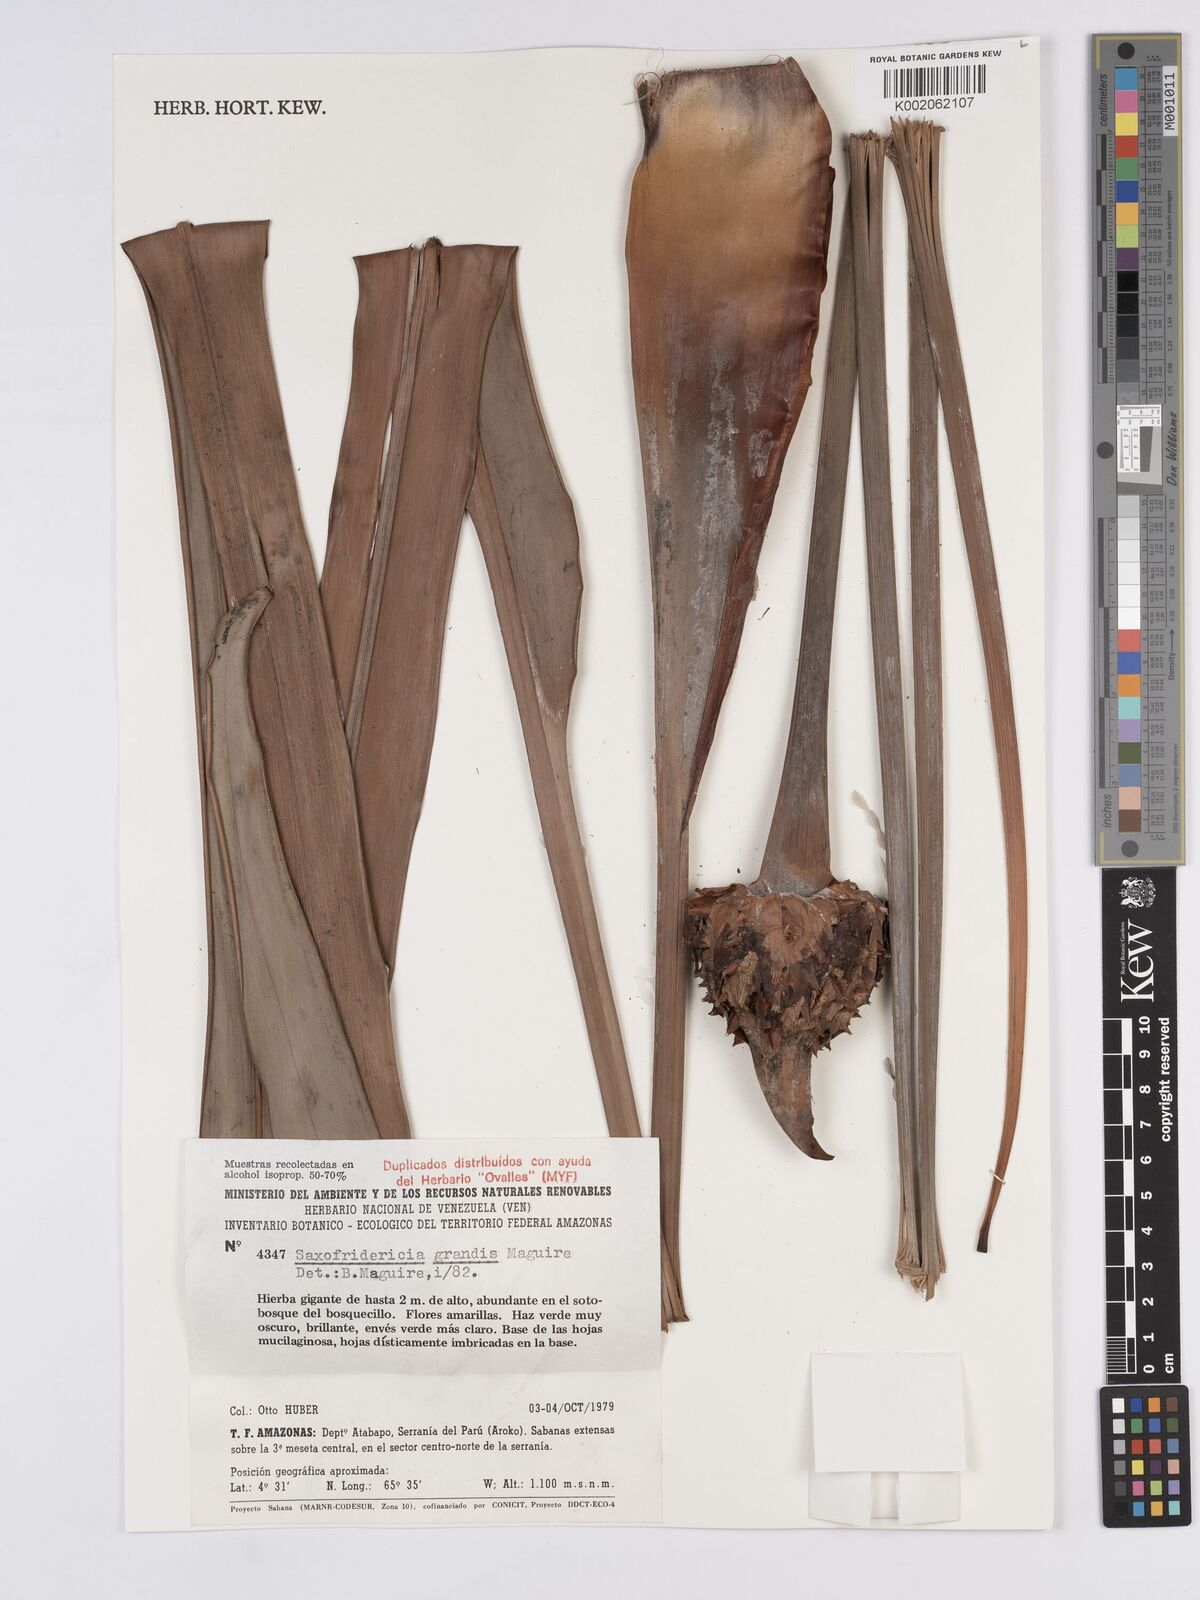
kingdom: Plantae
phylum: Tracheophyta
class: Liliopsida
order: Poales
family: Rapateaceae
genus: Saxofridericia
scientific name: Saxofridericia grandis
